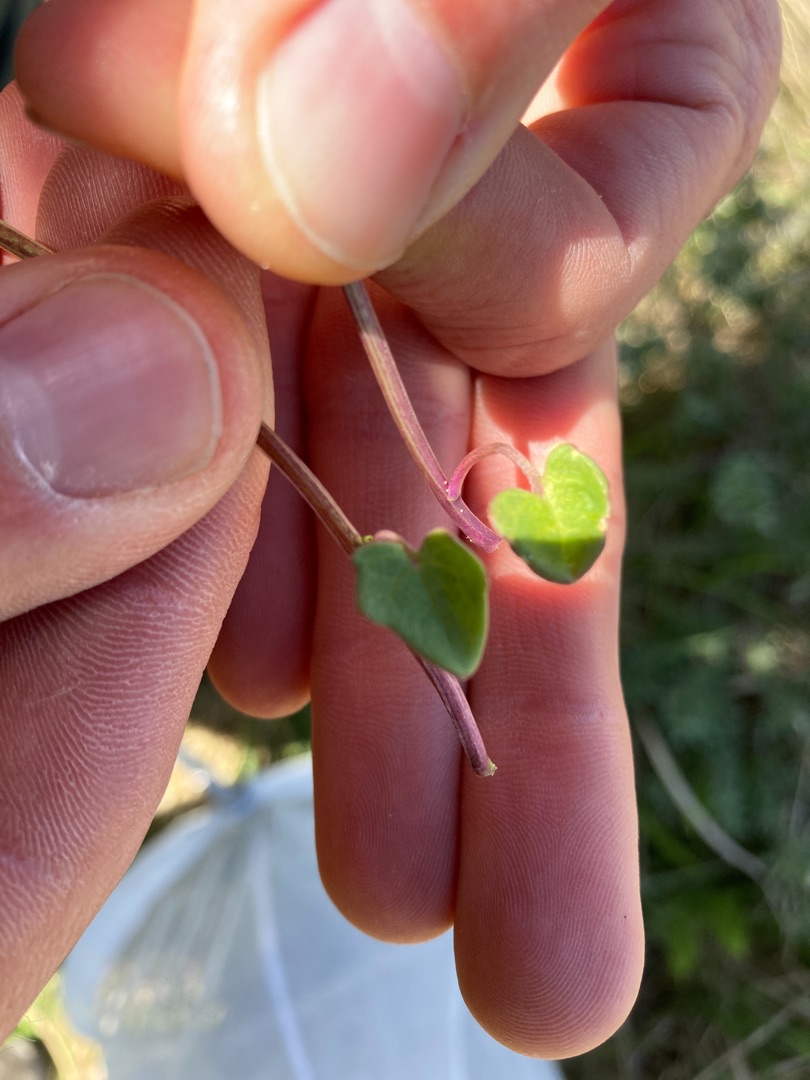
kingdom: Plantae
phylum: Tracheophyta
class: Magnoliopsida
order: Brassicales
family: Brassicaceae
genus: Cochlearia
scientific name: Cochlearia officinalis
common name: Læge-kokleare (underart)
